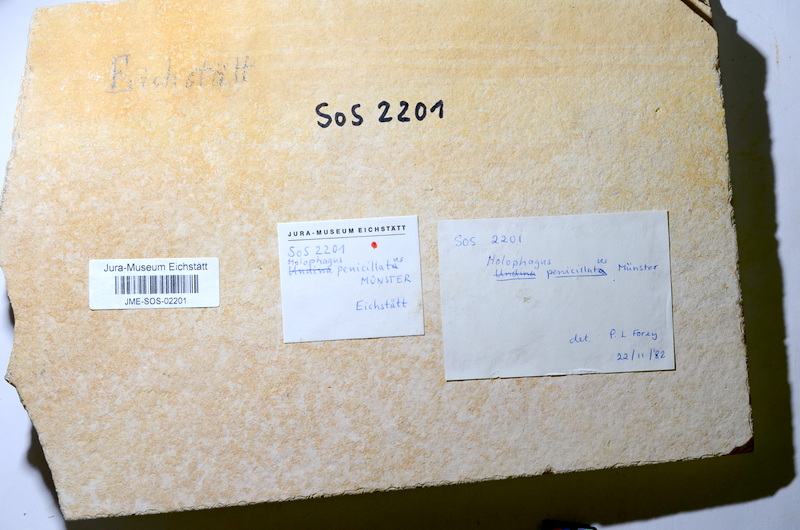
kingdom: Animalia
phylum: Chordata
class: Coelacanthi
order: Coelacanthiformes
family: Latimeroidea
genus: Undina
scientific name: Undina penicillata
